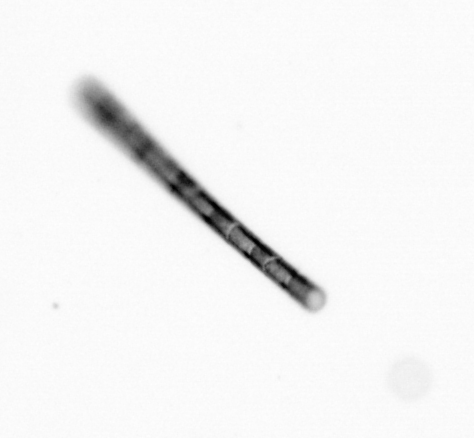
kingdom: Chromista
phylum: Ochrophyta
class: Bacillariophyceae
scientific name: Bacillariophyceae
